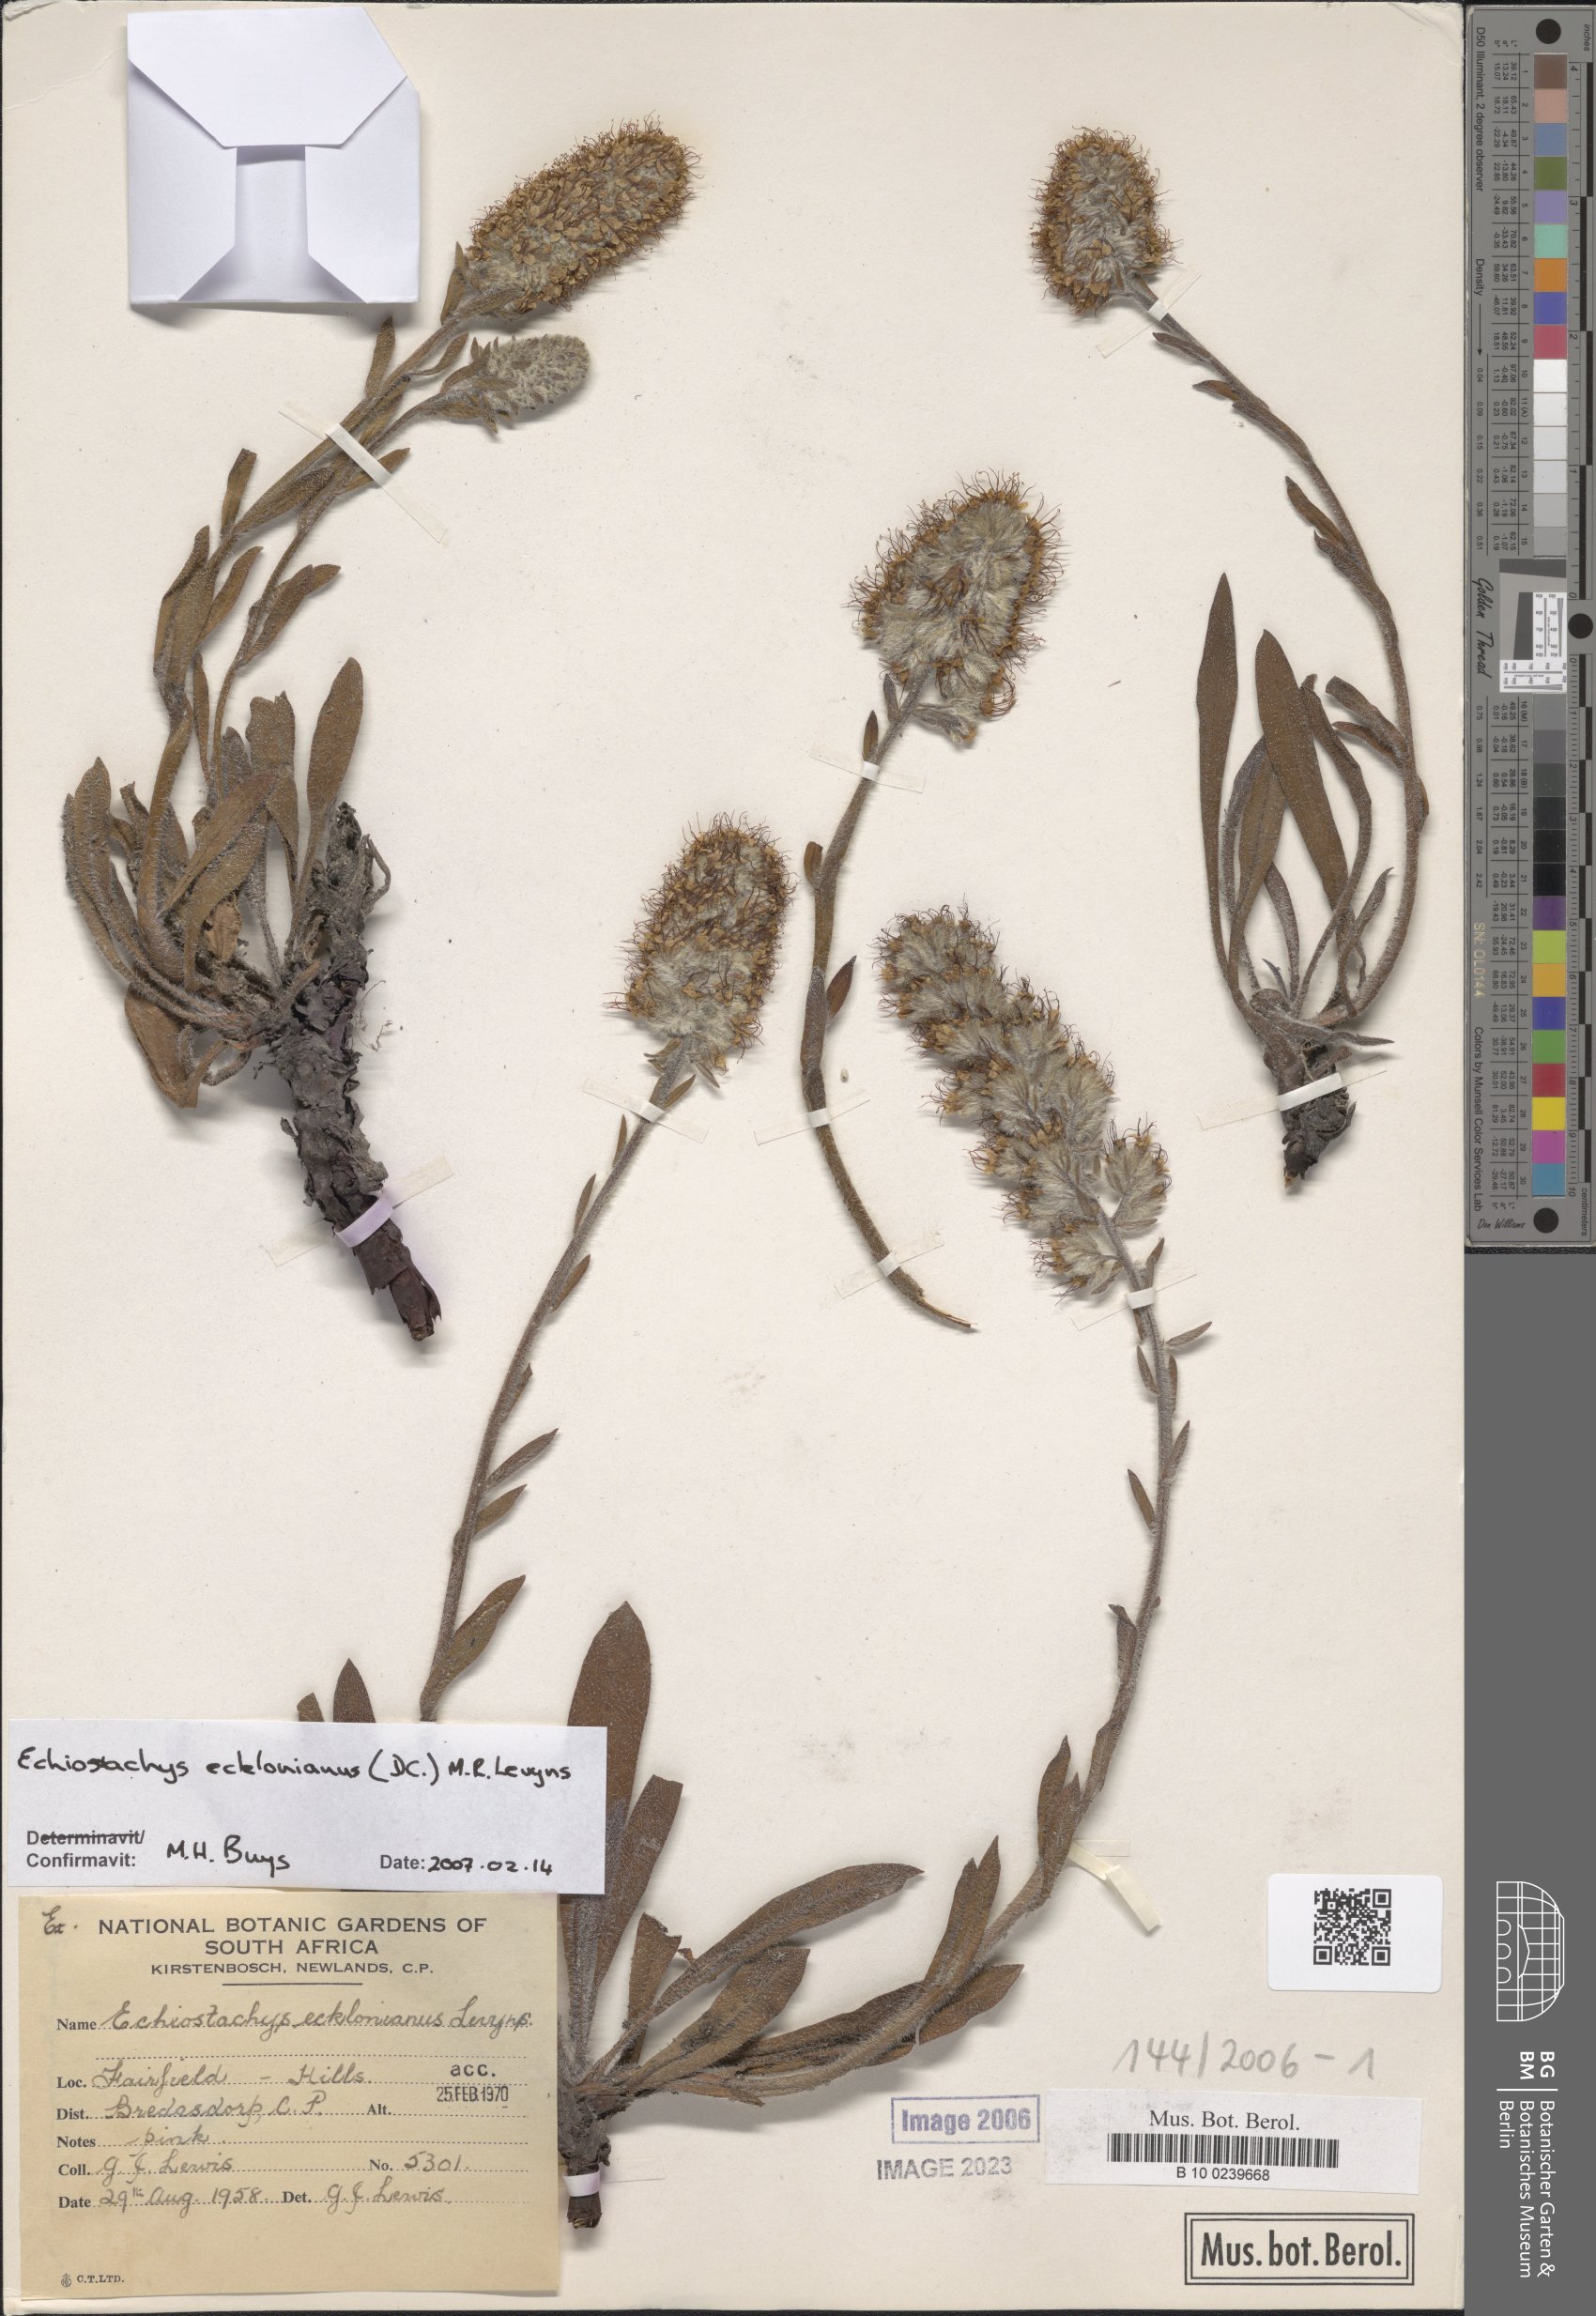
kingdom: Plantae
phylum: Tracheophyta
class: Magnoliopsida
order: Boraginales
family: Boraginaceae
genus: Lobostemon
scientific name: Lobostemon ecklonianus
